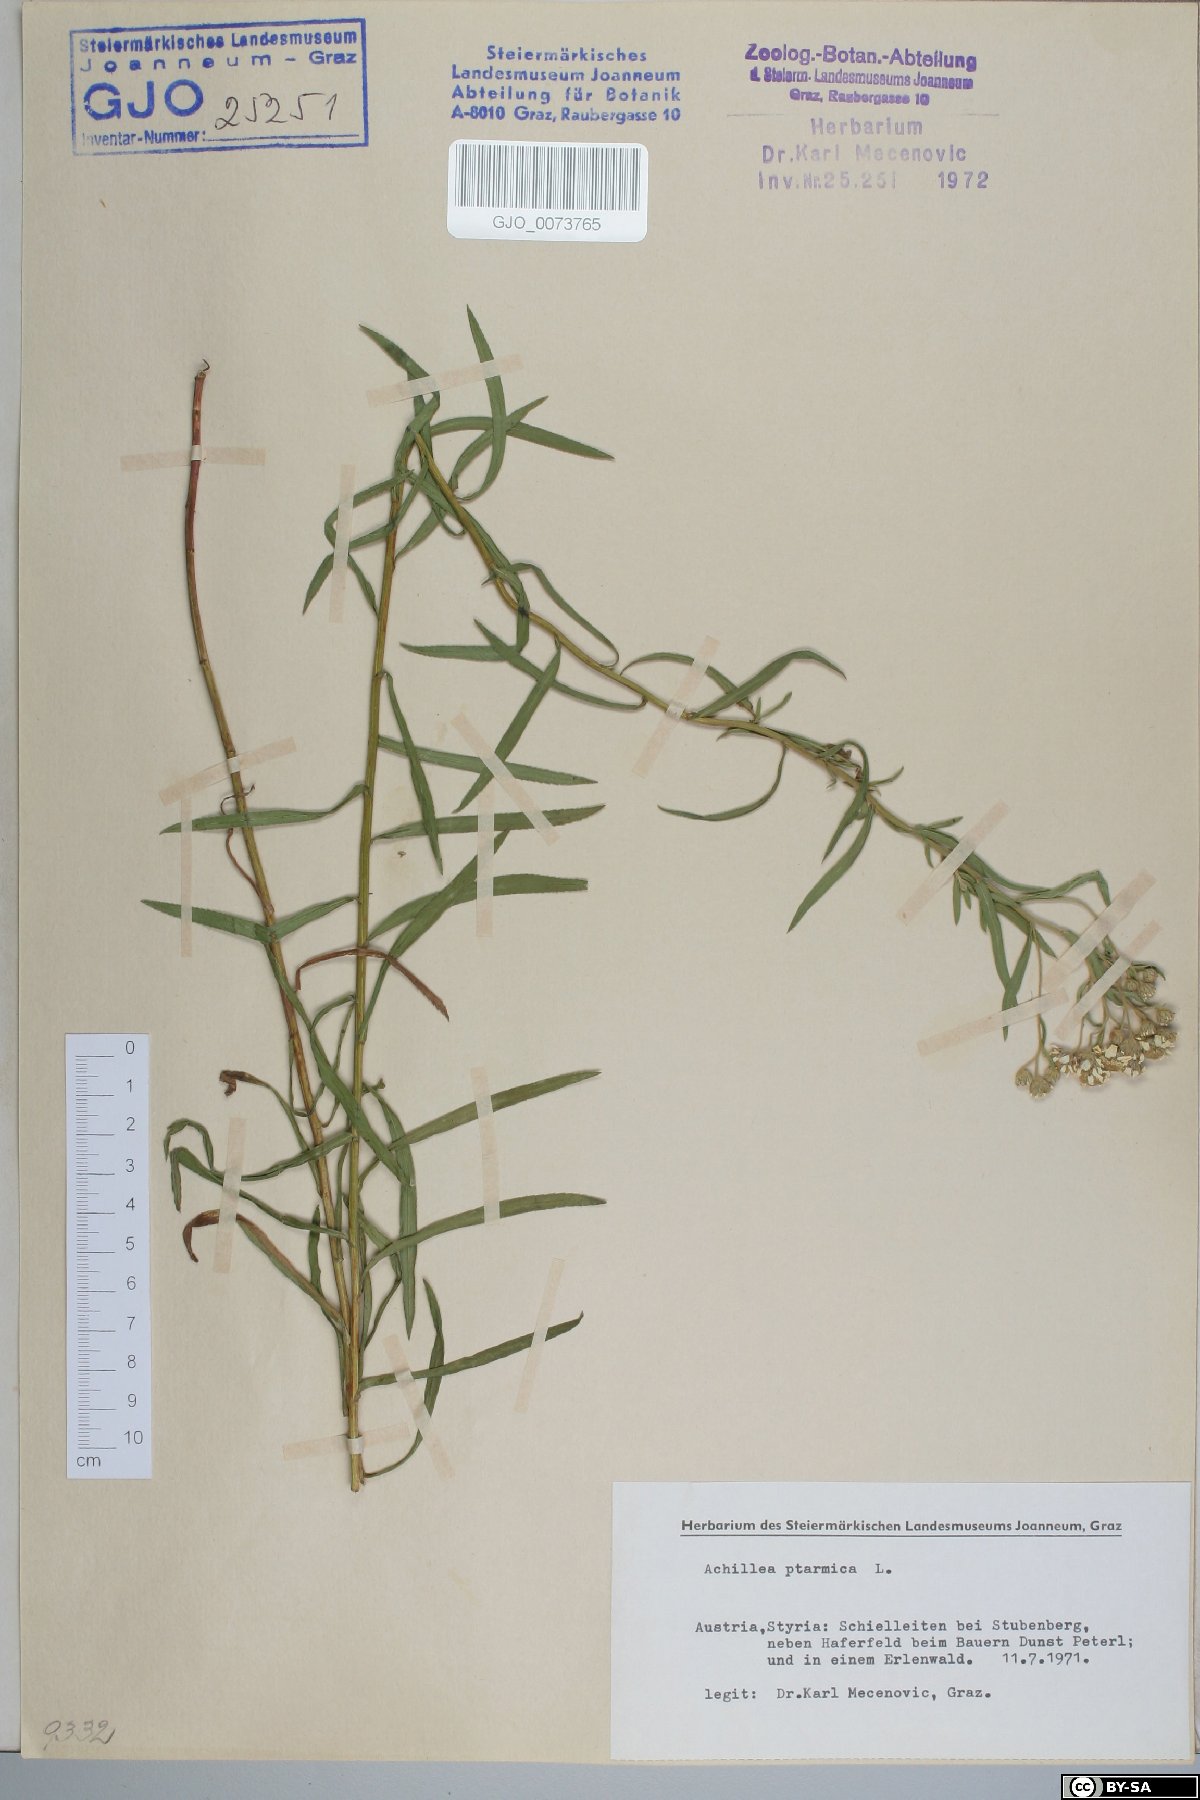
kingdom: Plantae
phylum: Tracheophyta
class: Magnoliopsida
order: Asterales
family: Asteraceae
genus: Achillea
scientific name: Achillea ptarmica
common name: Sneezeweed
